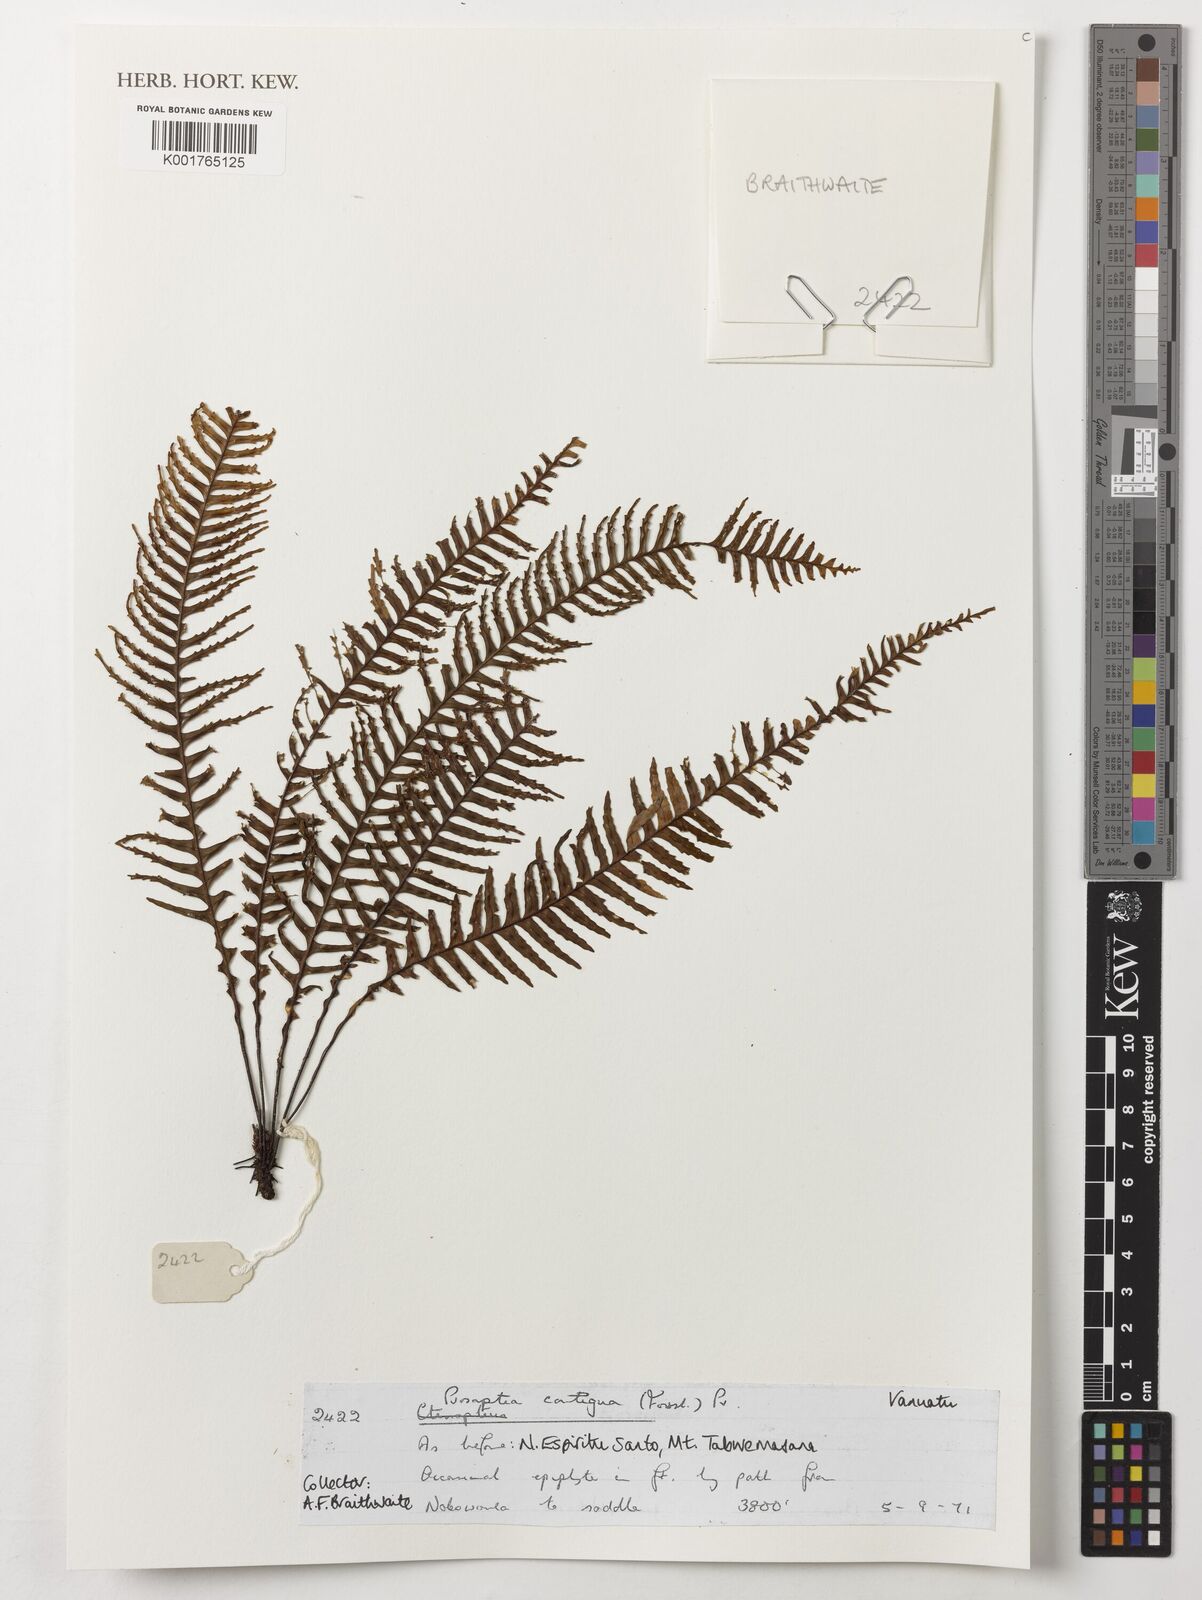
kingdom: Plantae
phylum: Tracheophyta
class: Polypodiopsida
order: Polypodiales
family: Polypodiaceae
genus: Prosaptia
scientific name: Prosaptia contigua
